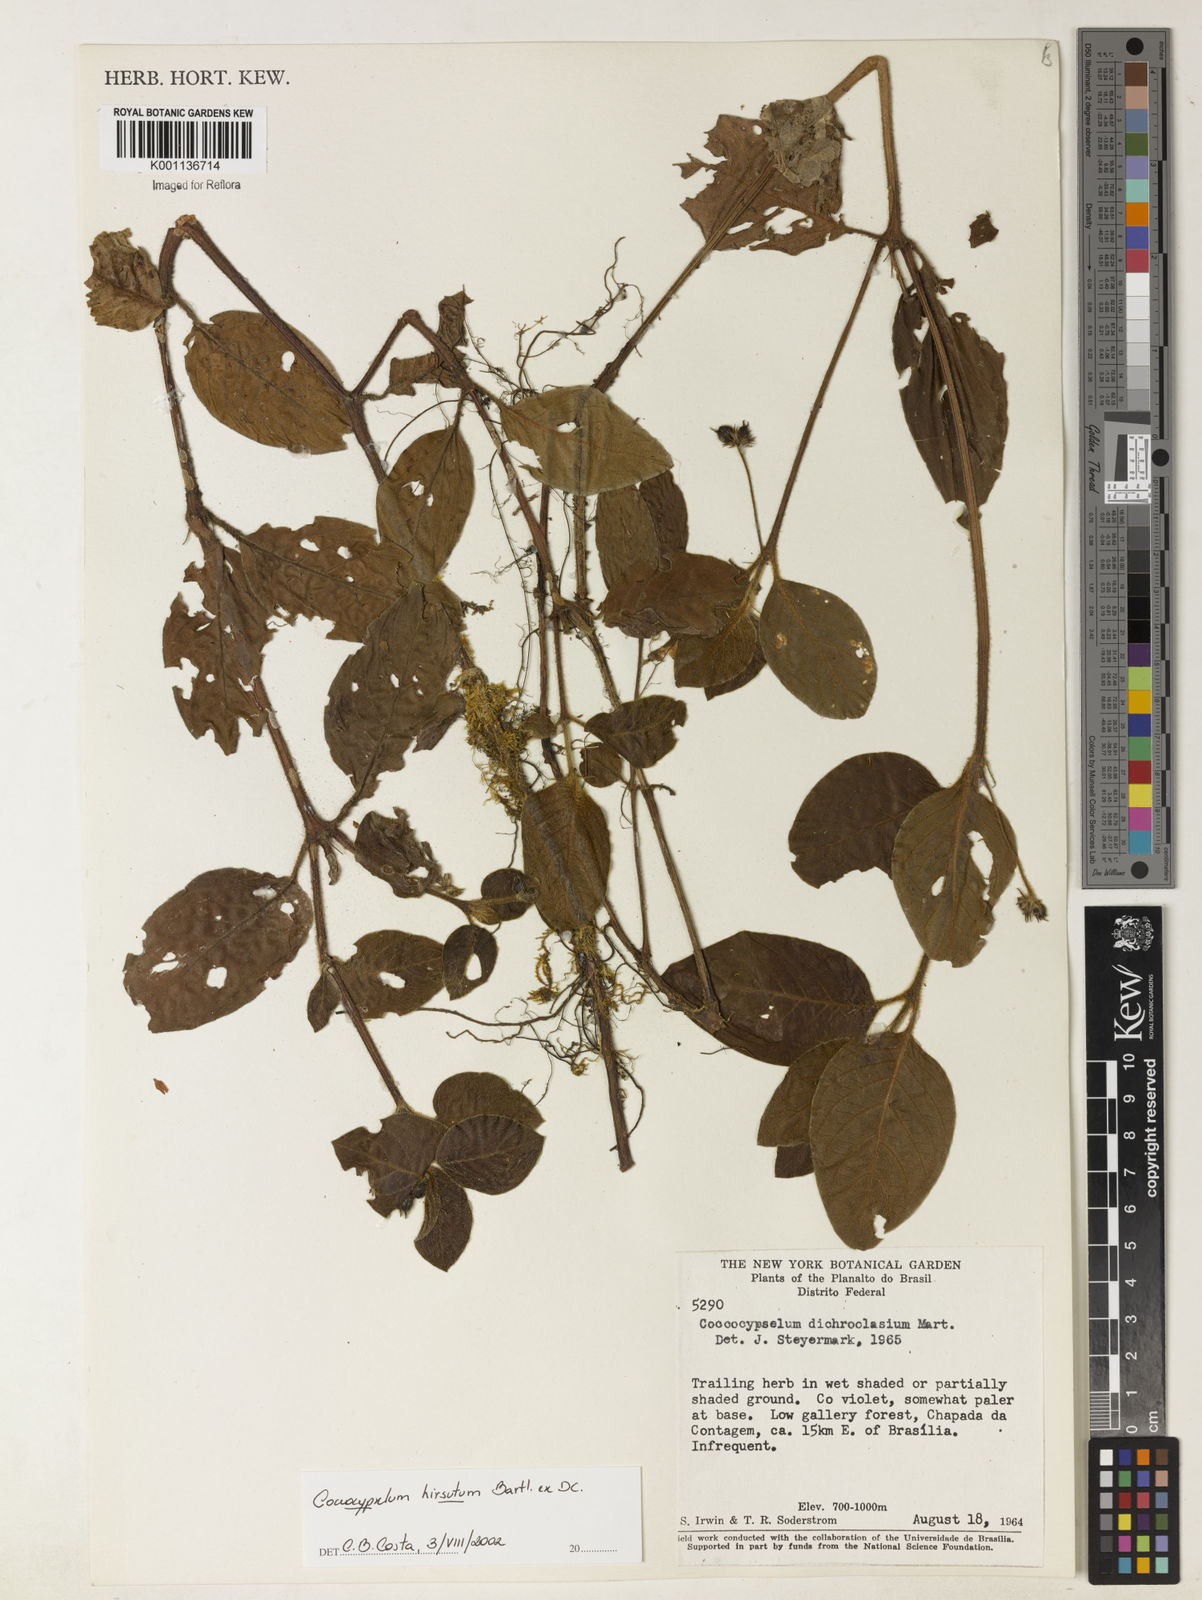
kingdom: Plantae
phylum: Tracheophyta
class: Magnoliopsida
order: Gentianales
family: Rubiaceae
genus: Coccocypselum
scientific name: Coccocypselum hirsutum
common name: Yerba de guava
